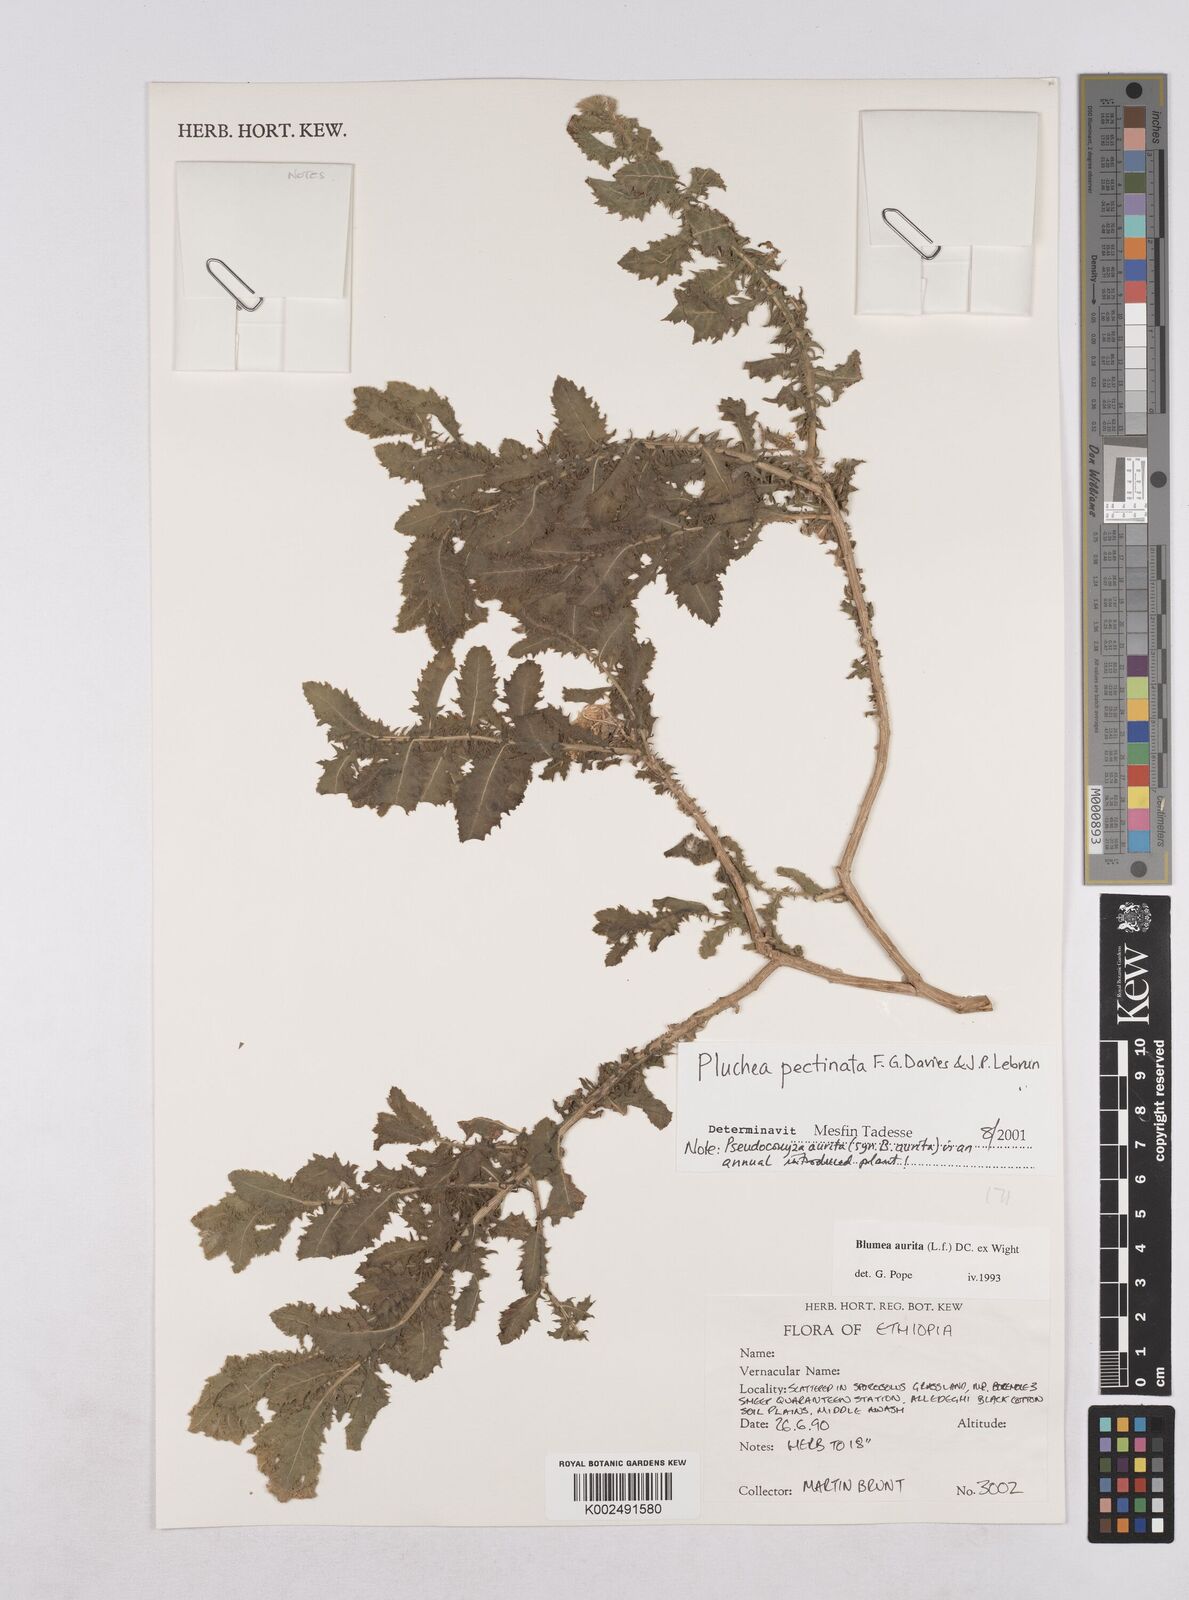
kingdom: Plantae
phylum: Tracheophyta
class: Magnoliopsida
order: Asterales
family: Asteraceae
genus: Pluchea
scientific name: Pluchea somaliensis
